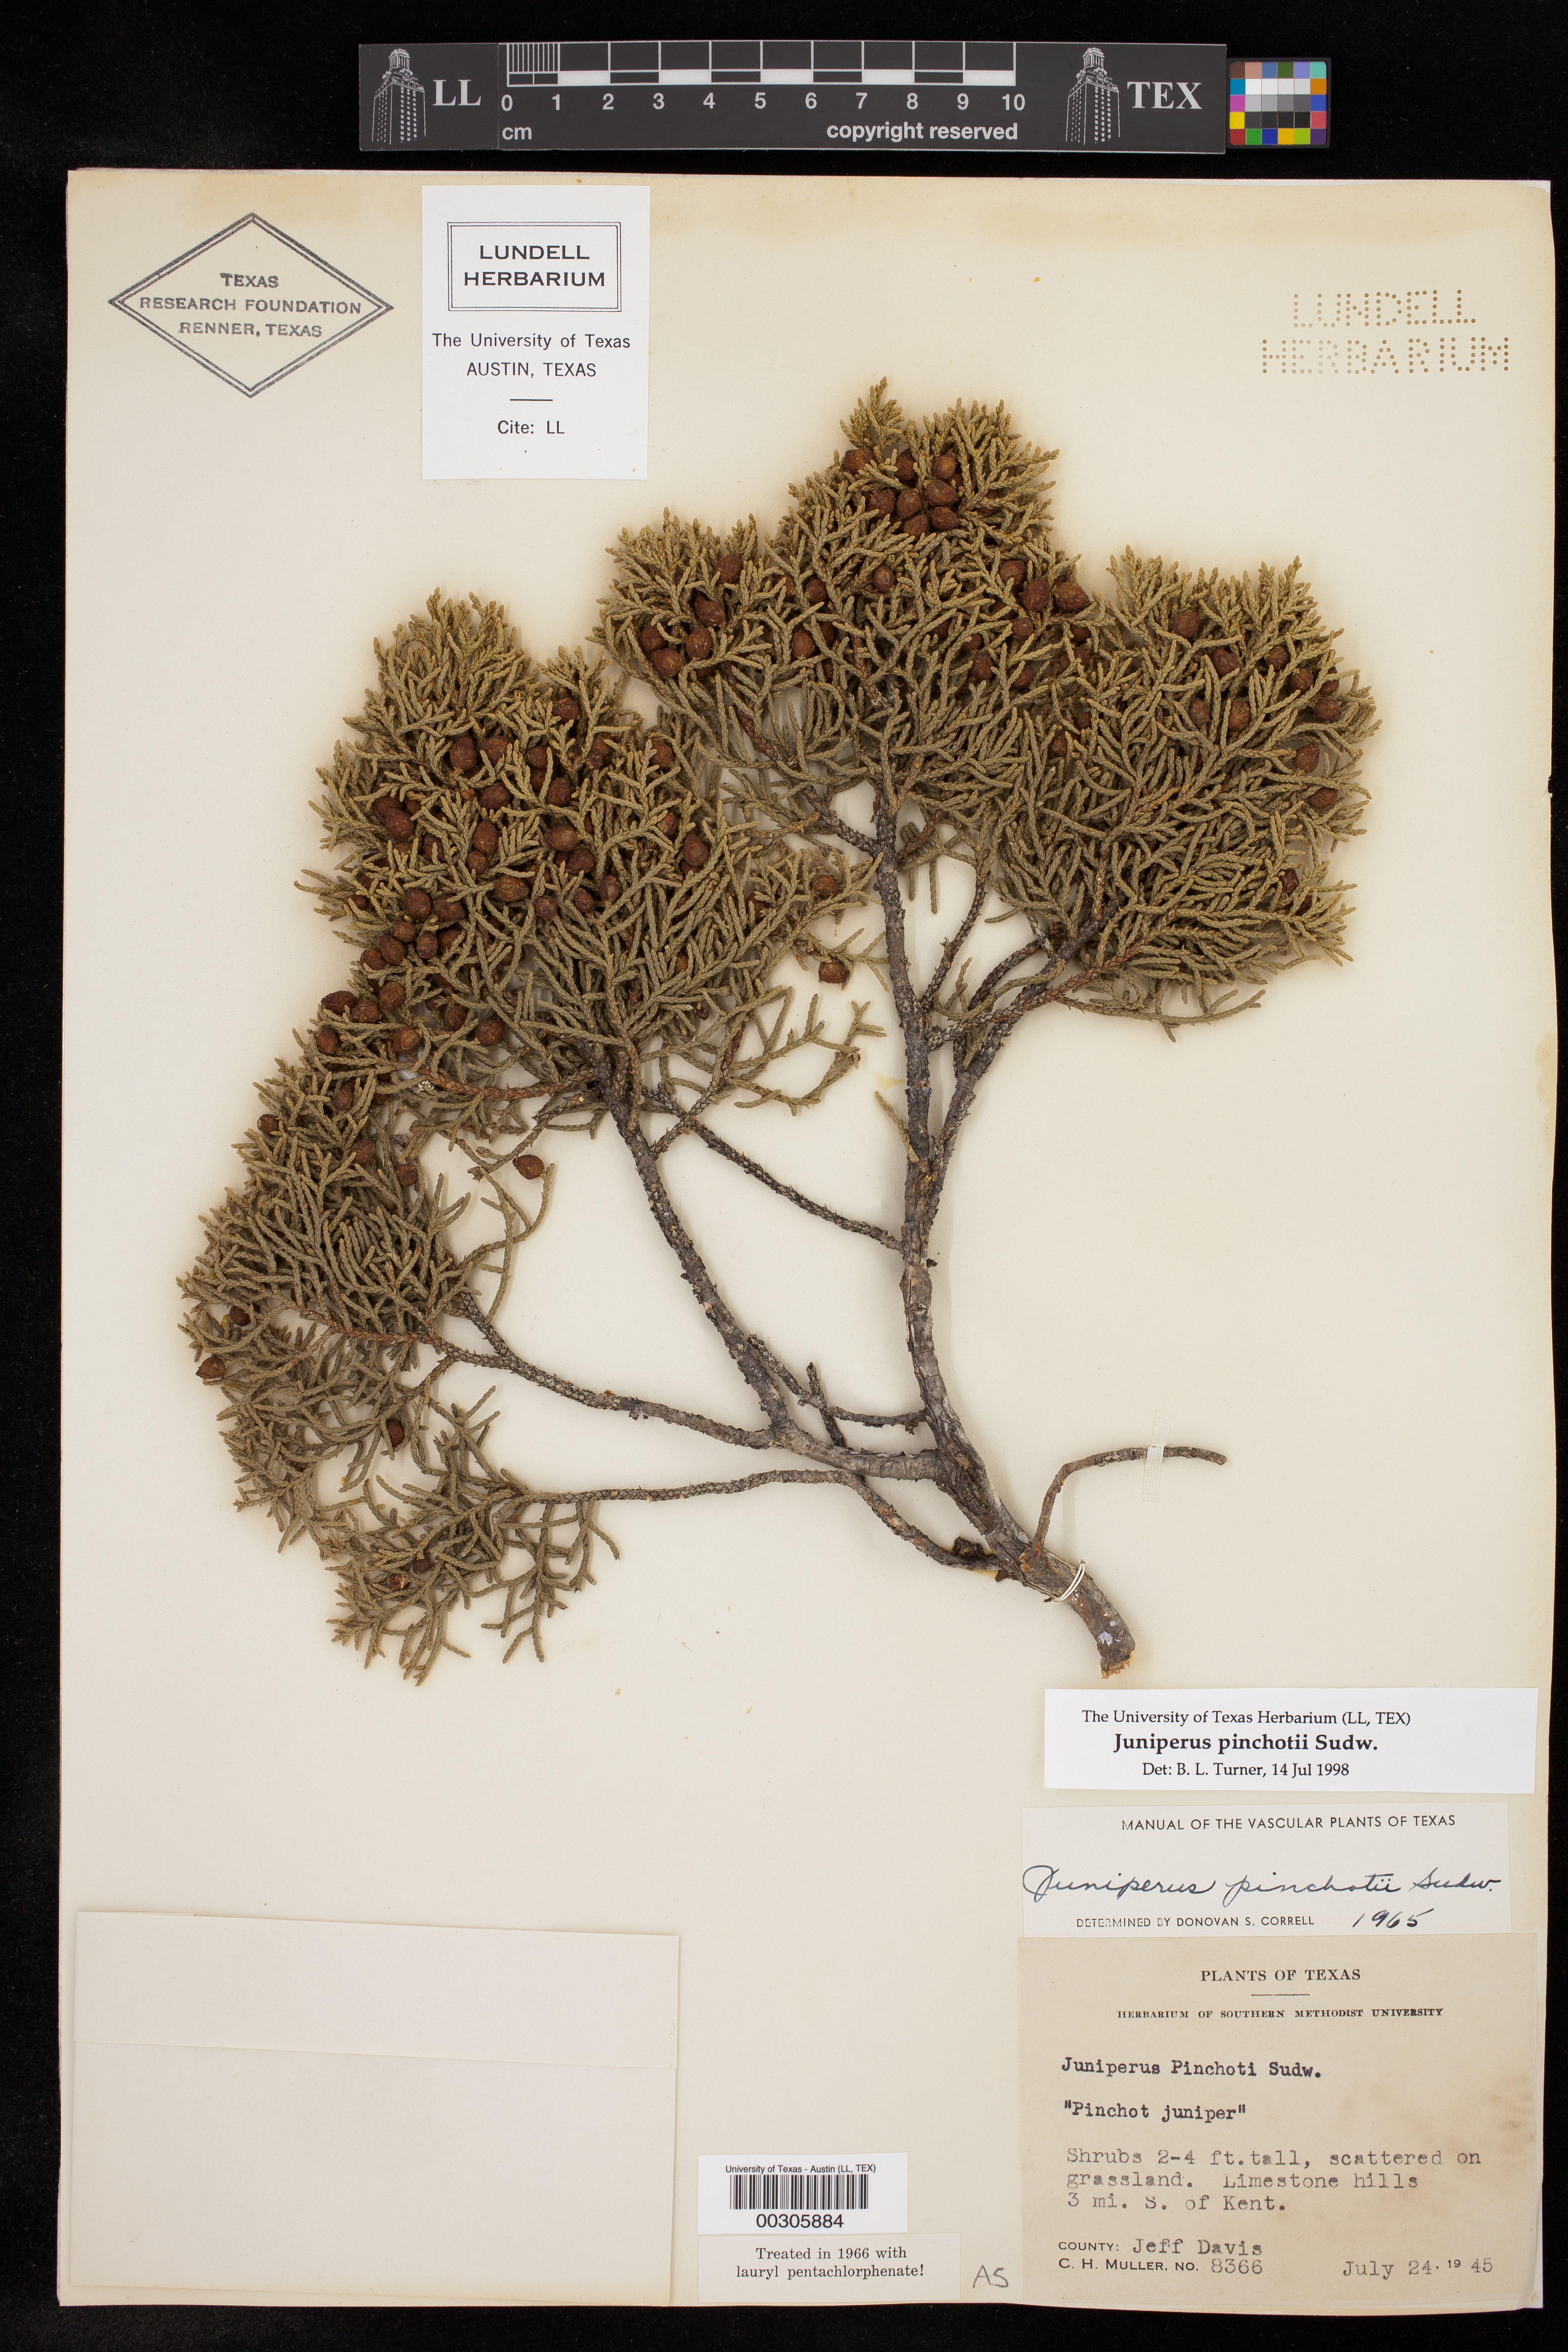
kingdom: Plantae
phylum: Tracheophyta
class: Pinopsida
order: Pinales
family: Cupressaceae
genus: Juniperus
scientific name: Juniperus pinchotii
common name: Pinchot juniper
